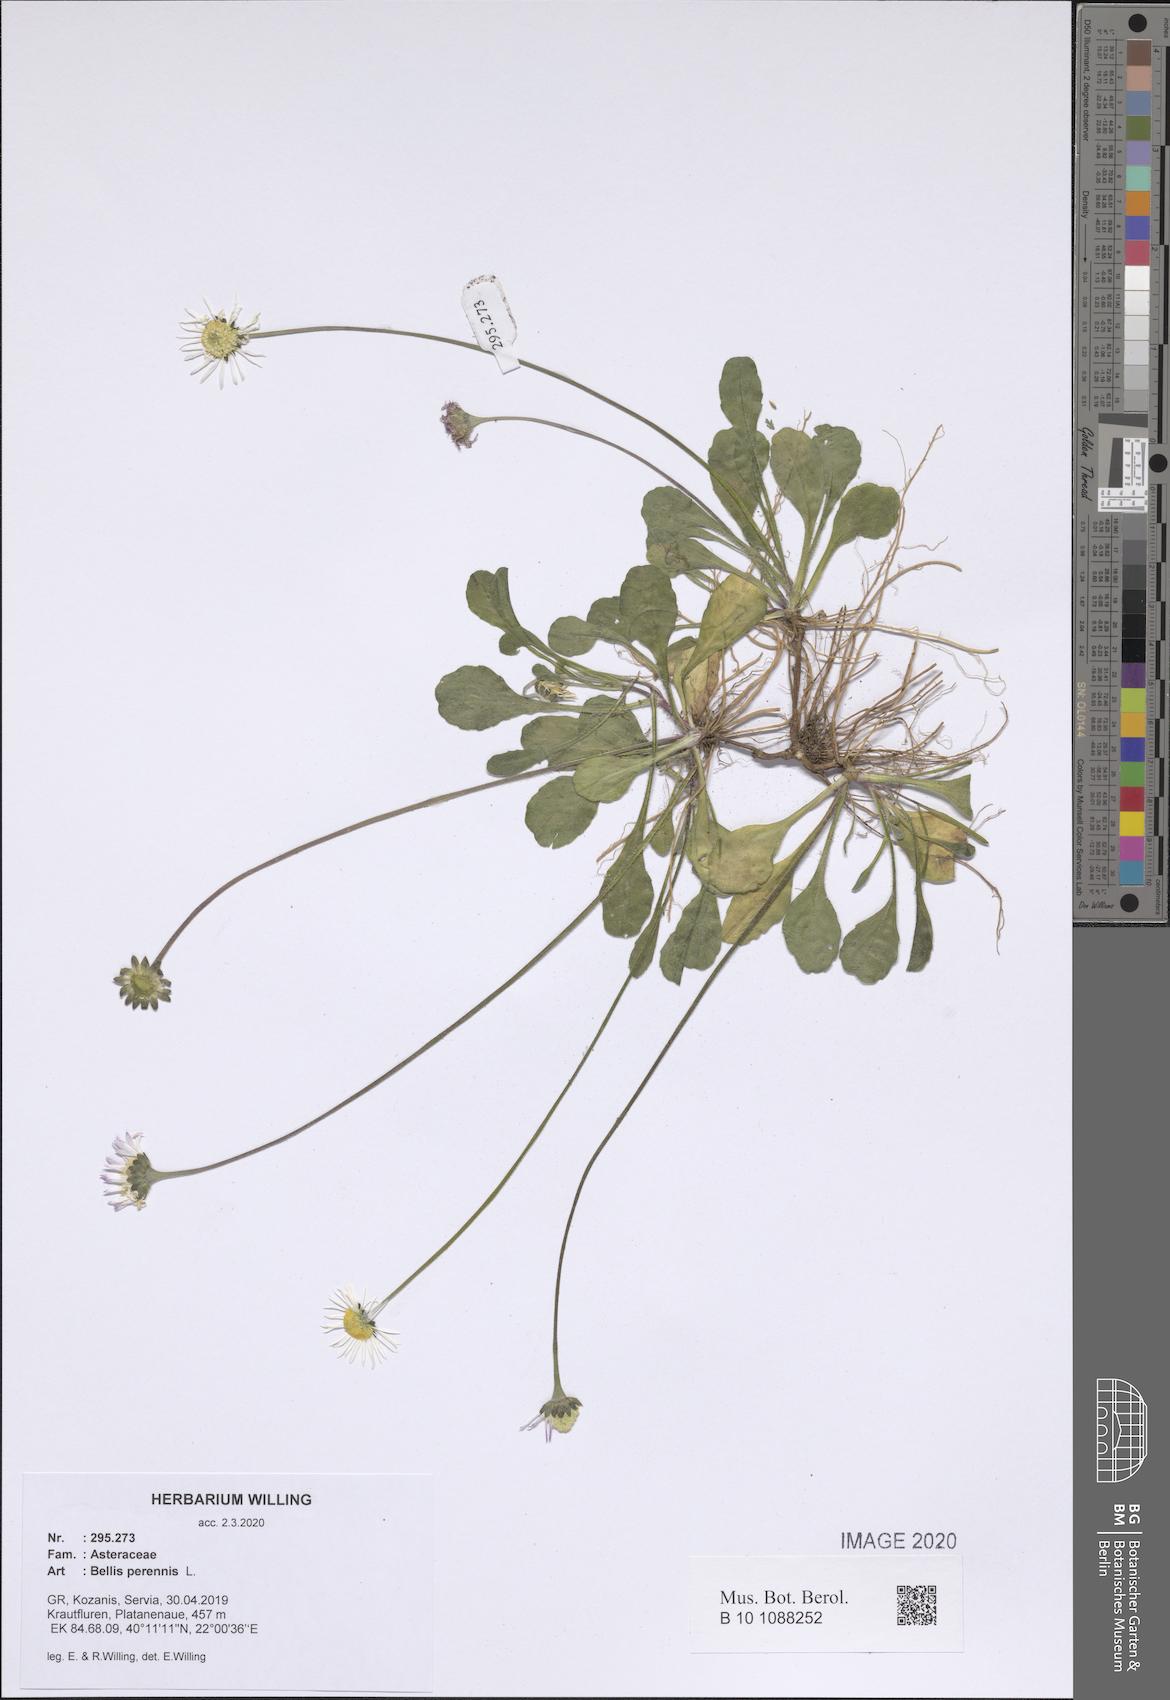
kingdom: Plantae
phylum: Tracheophyta
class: Magnoliopsida
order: Asterales
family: Asteraceae
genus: Bellis
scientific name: Bellis perennis
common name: Lawndaisy
